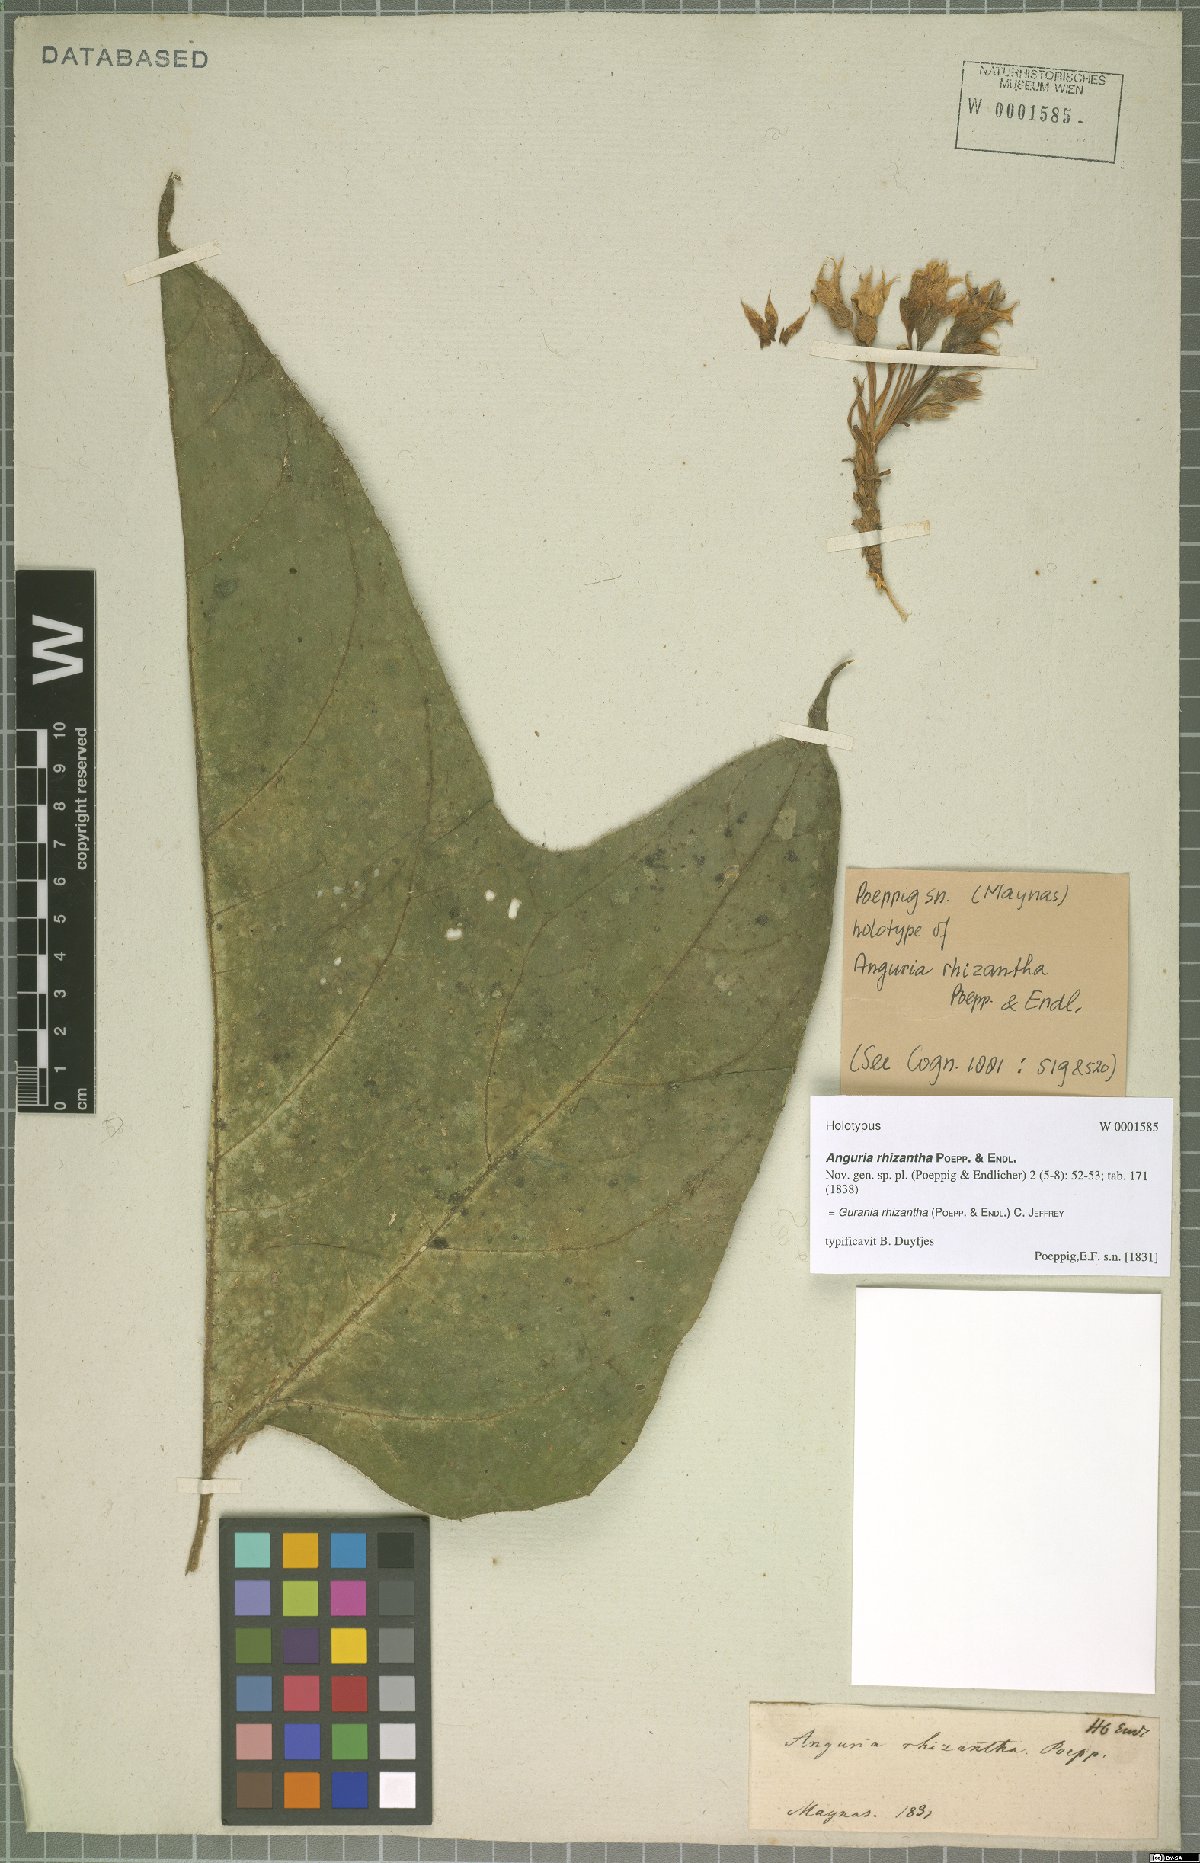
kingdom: Plantae
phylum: Tracheophyta
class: Magnoliopsida
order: Cucurbitales
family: Cucurbitaceae
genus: Gurania
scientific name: Gurania rhizantha
